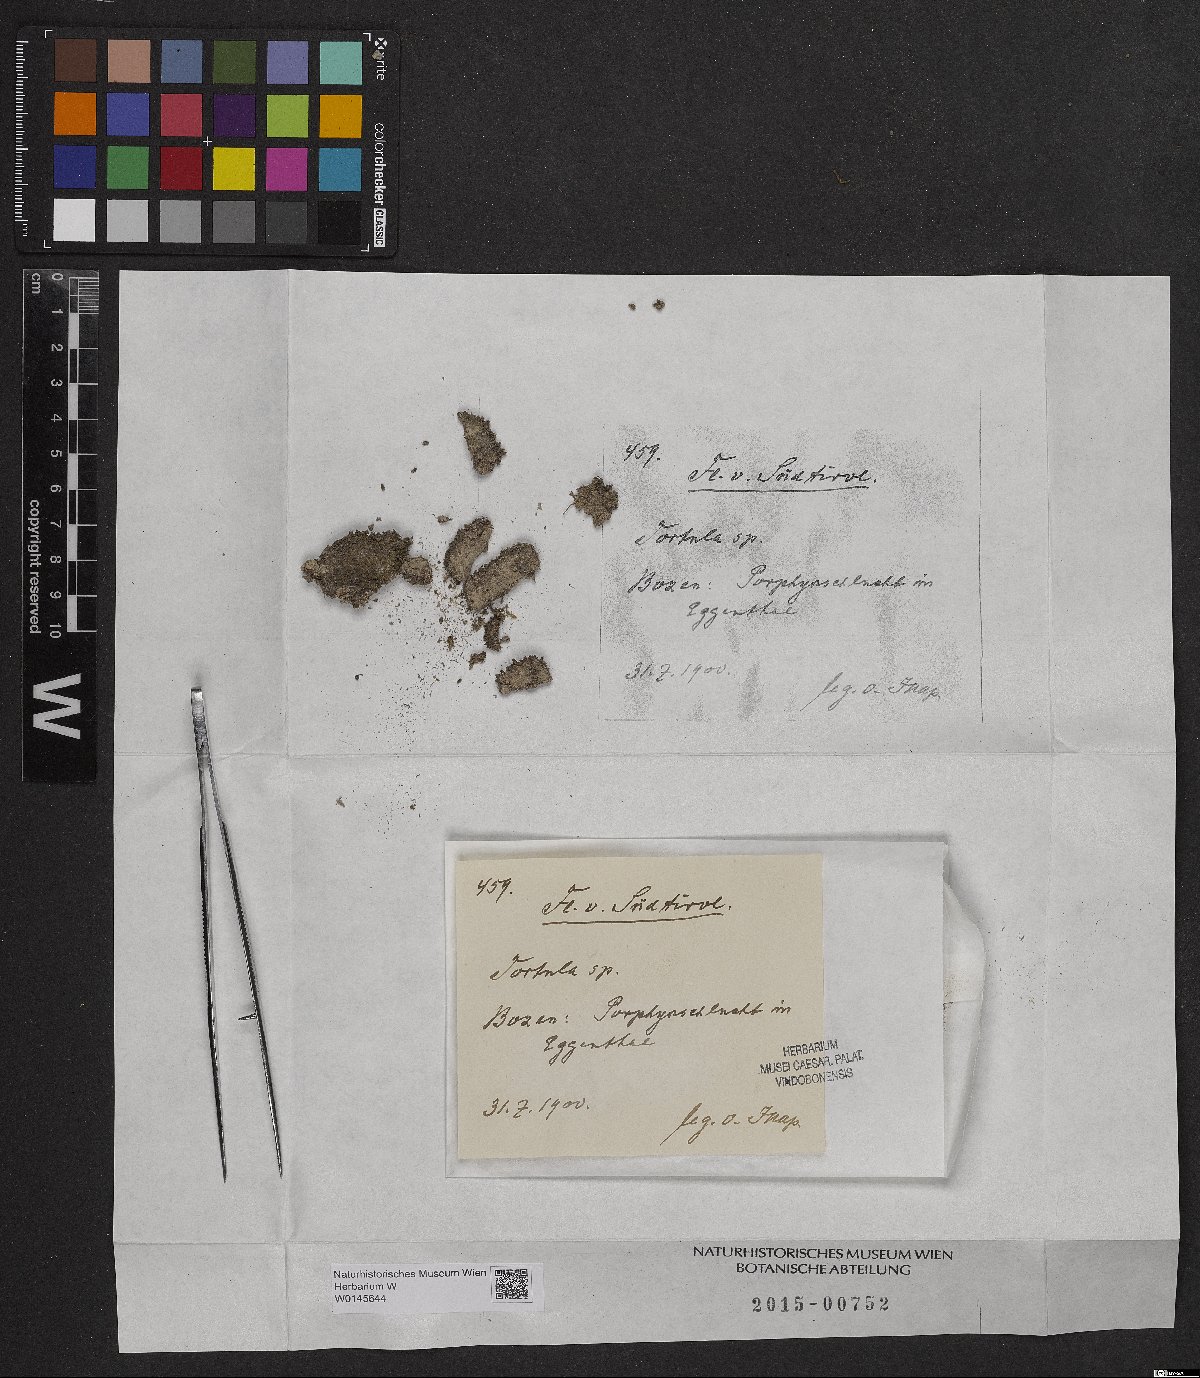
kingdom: Plantae
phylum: Bryophyta
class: Bryopsida
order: Pottiales
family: Pottiaceae
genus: Tortula
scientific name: Tortula
